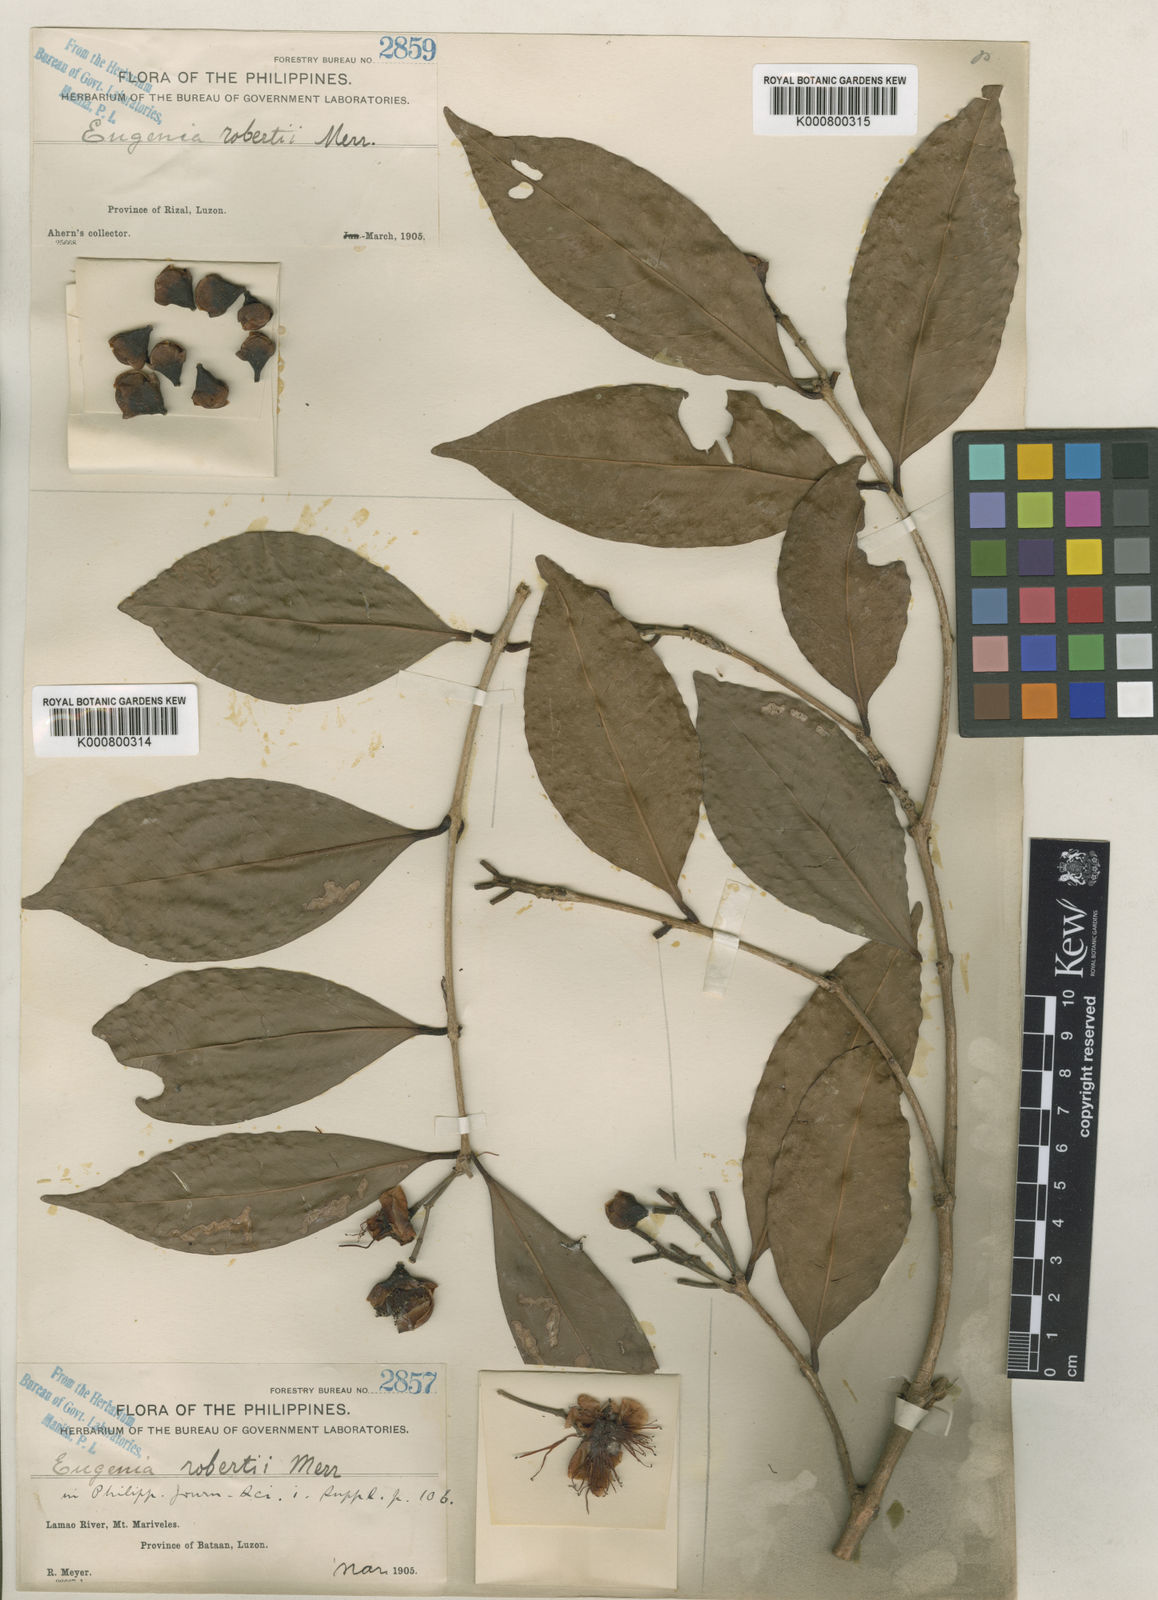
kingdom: Plantae
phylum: Tracheophyta
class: Magnoliopsida
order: Myrtales
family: Myrtaceae
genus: Syzygium
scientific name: Syzygium robertii
